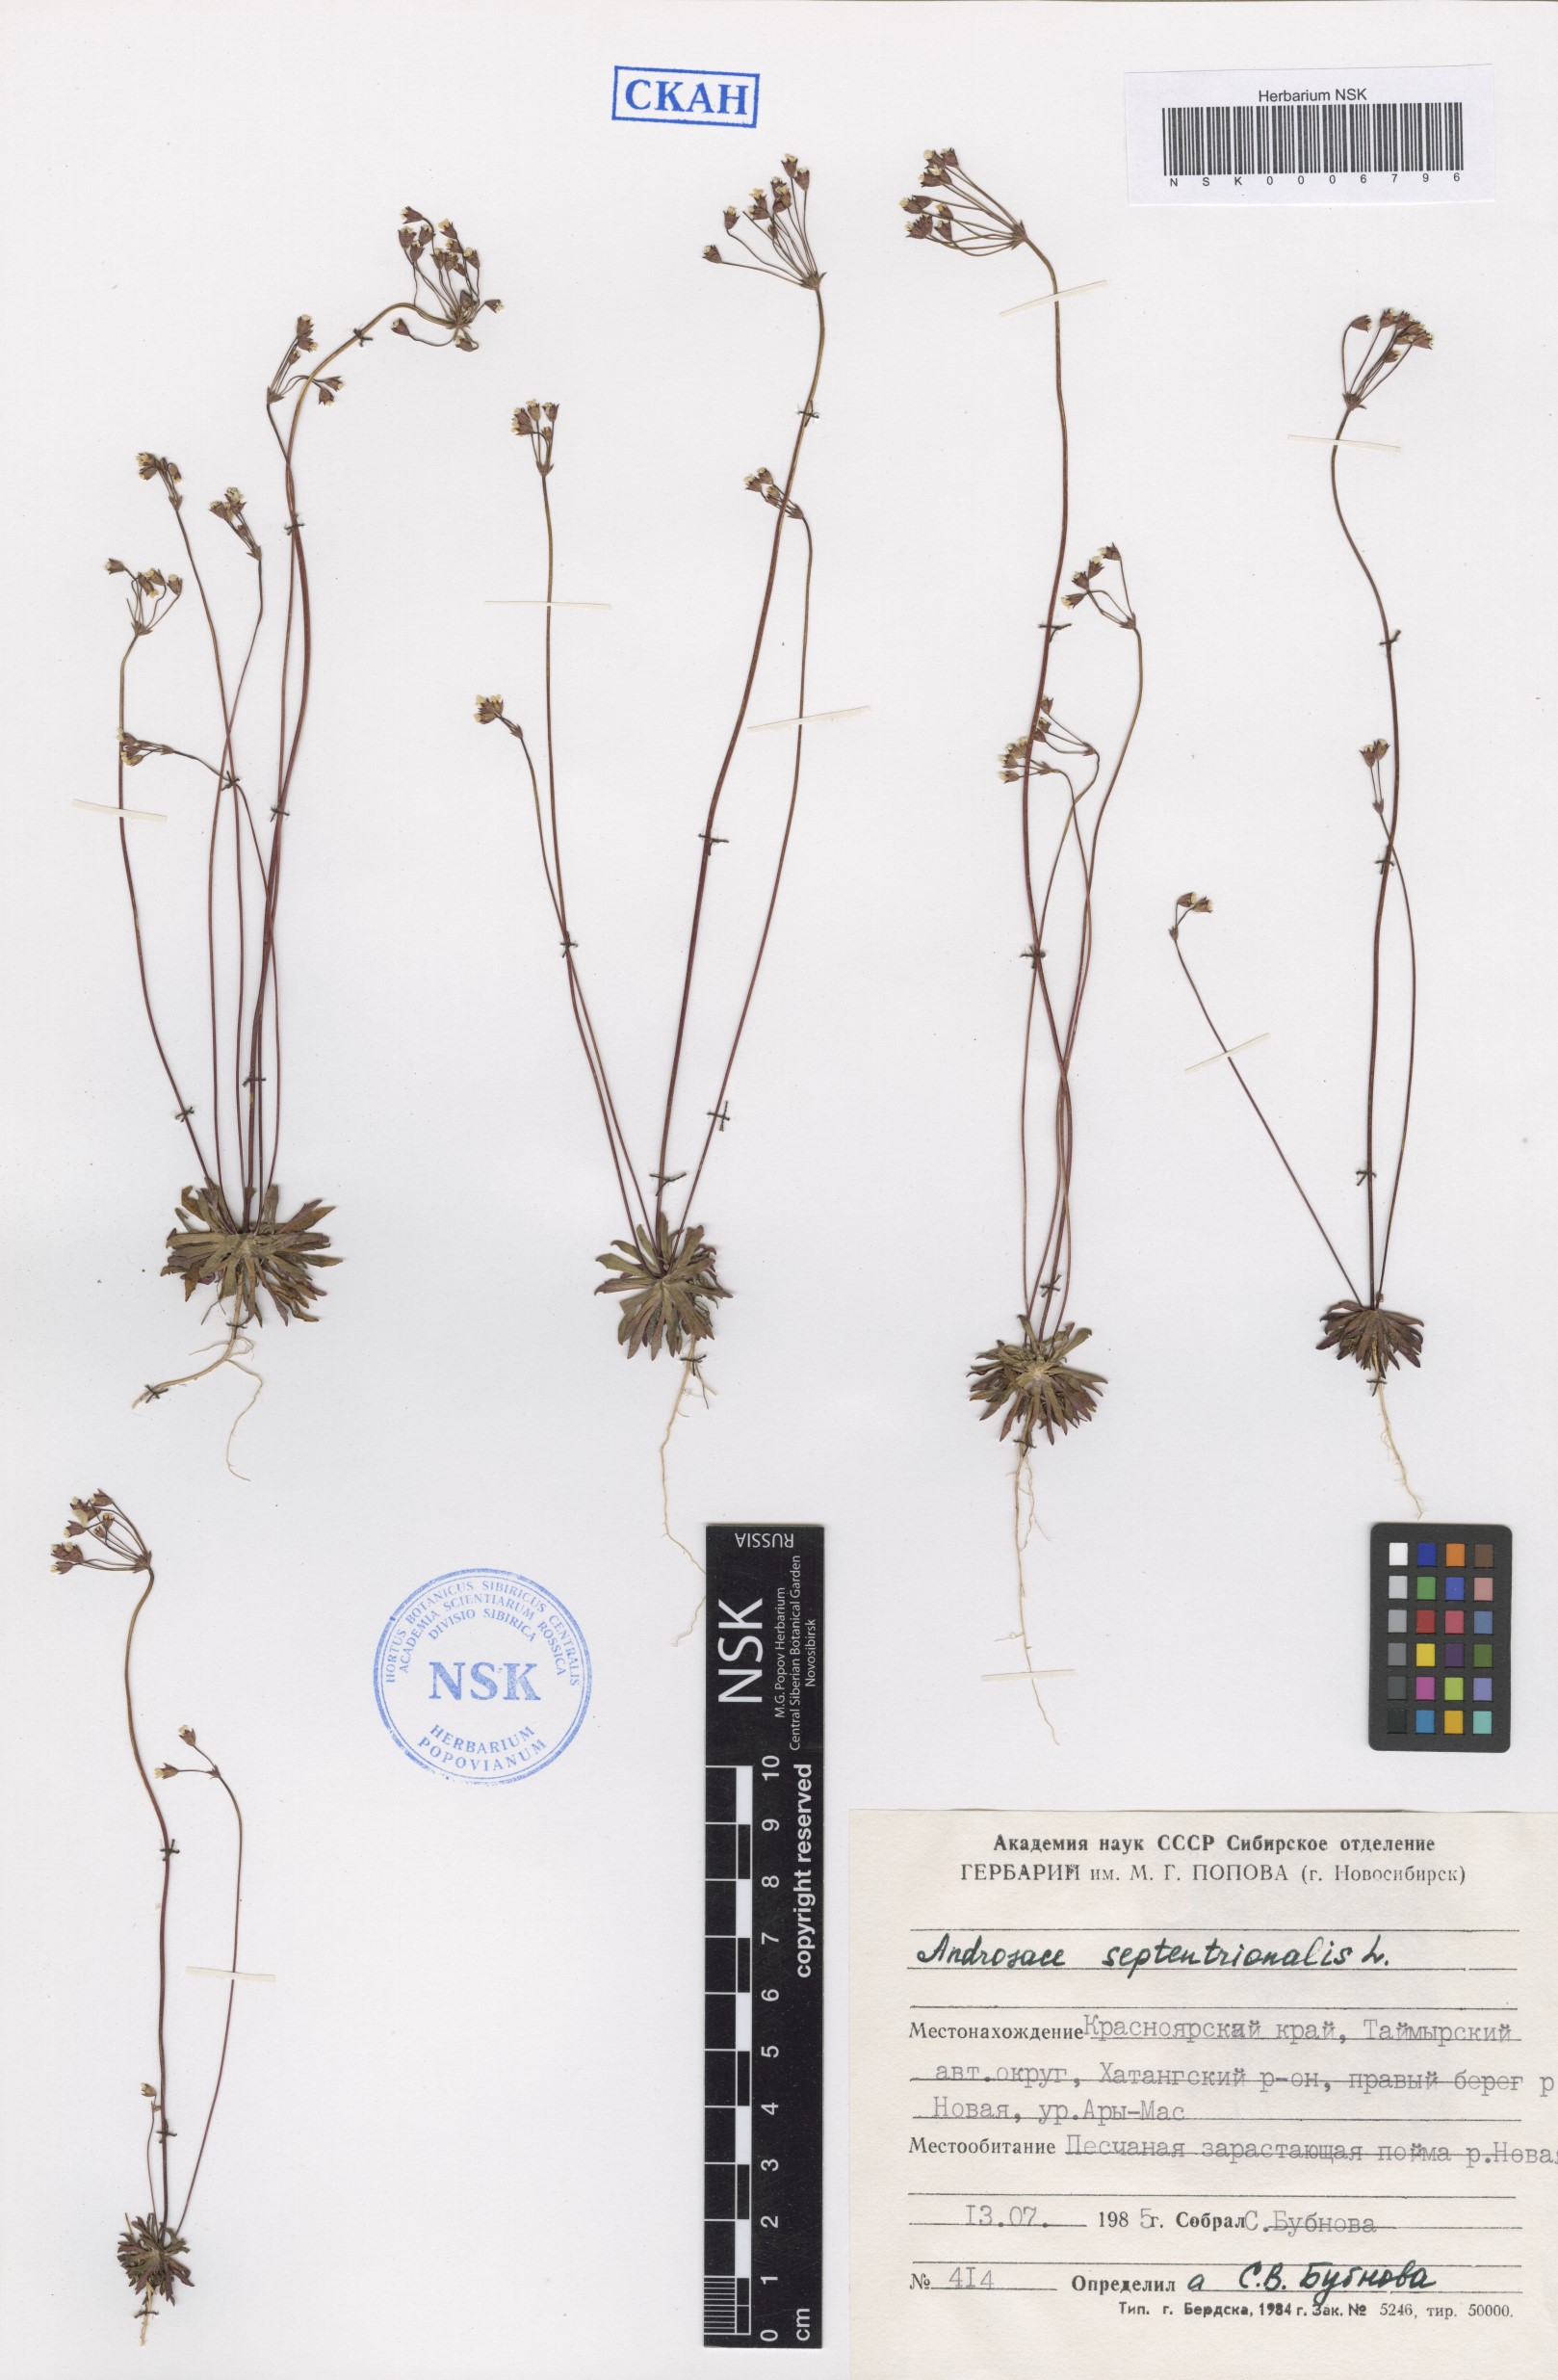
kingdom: Plantae
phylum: Tracheophyta
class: Magnoliopsida
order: Ericales
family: Primulaceae
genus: Androsace
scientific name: Androsace septentrionalis
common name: Hairy northern fairy-candelabra
